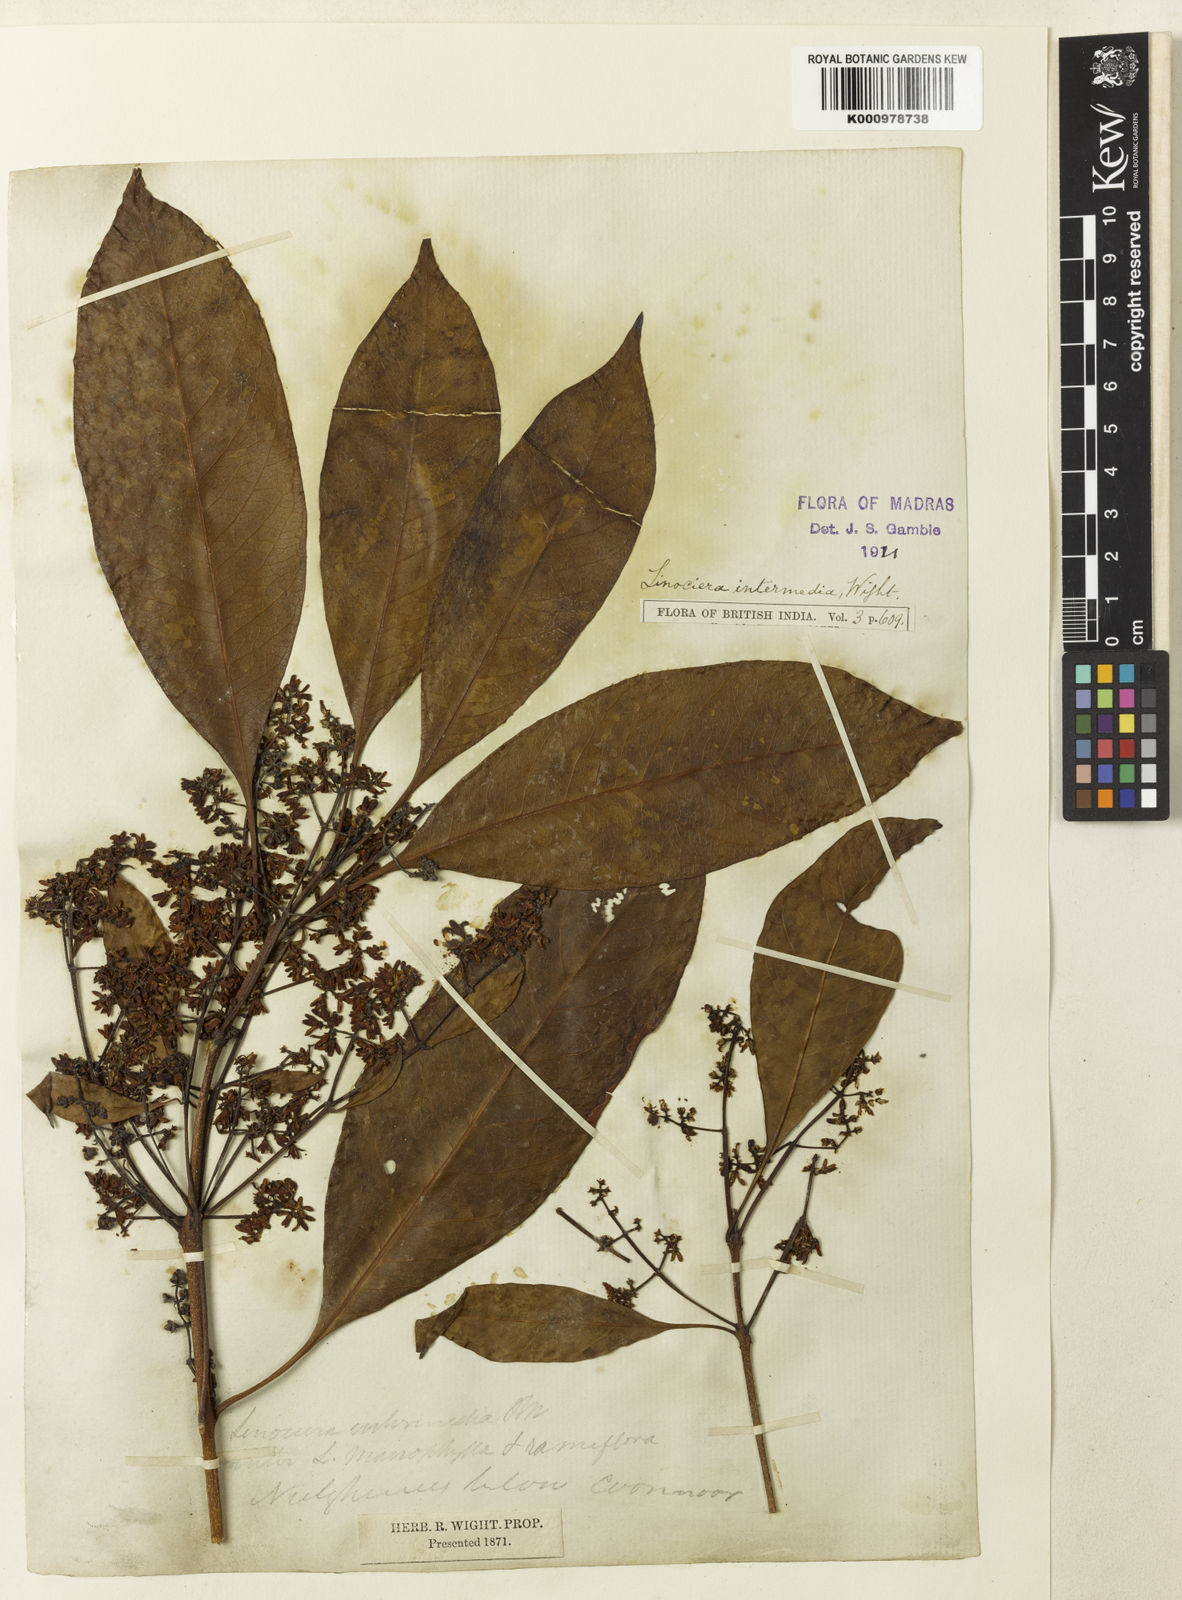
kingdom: Plantae
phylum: Tracheophyta
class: Magnoliopsida
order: Lamiales
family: Oleaceae
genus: Chionanthus
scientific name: Chionanthus
